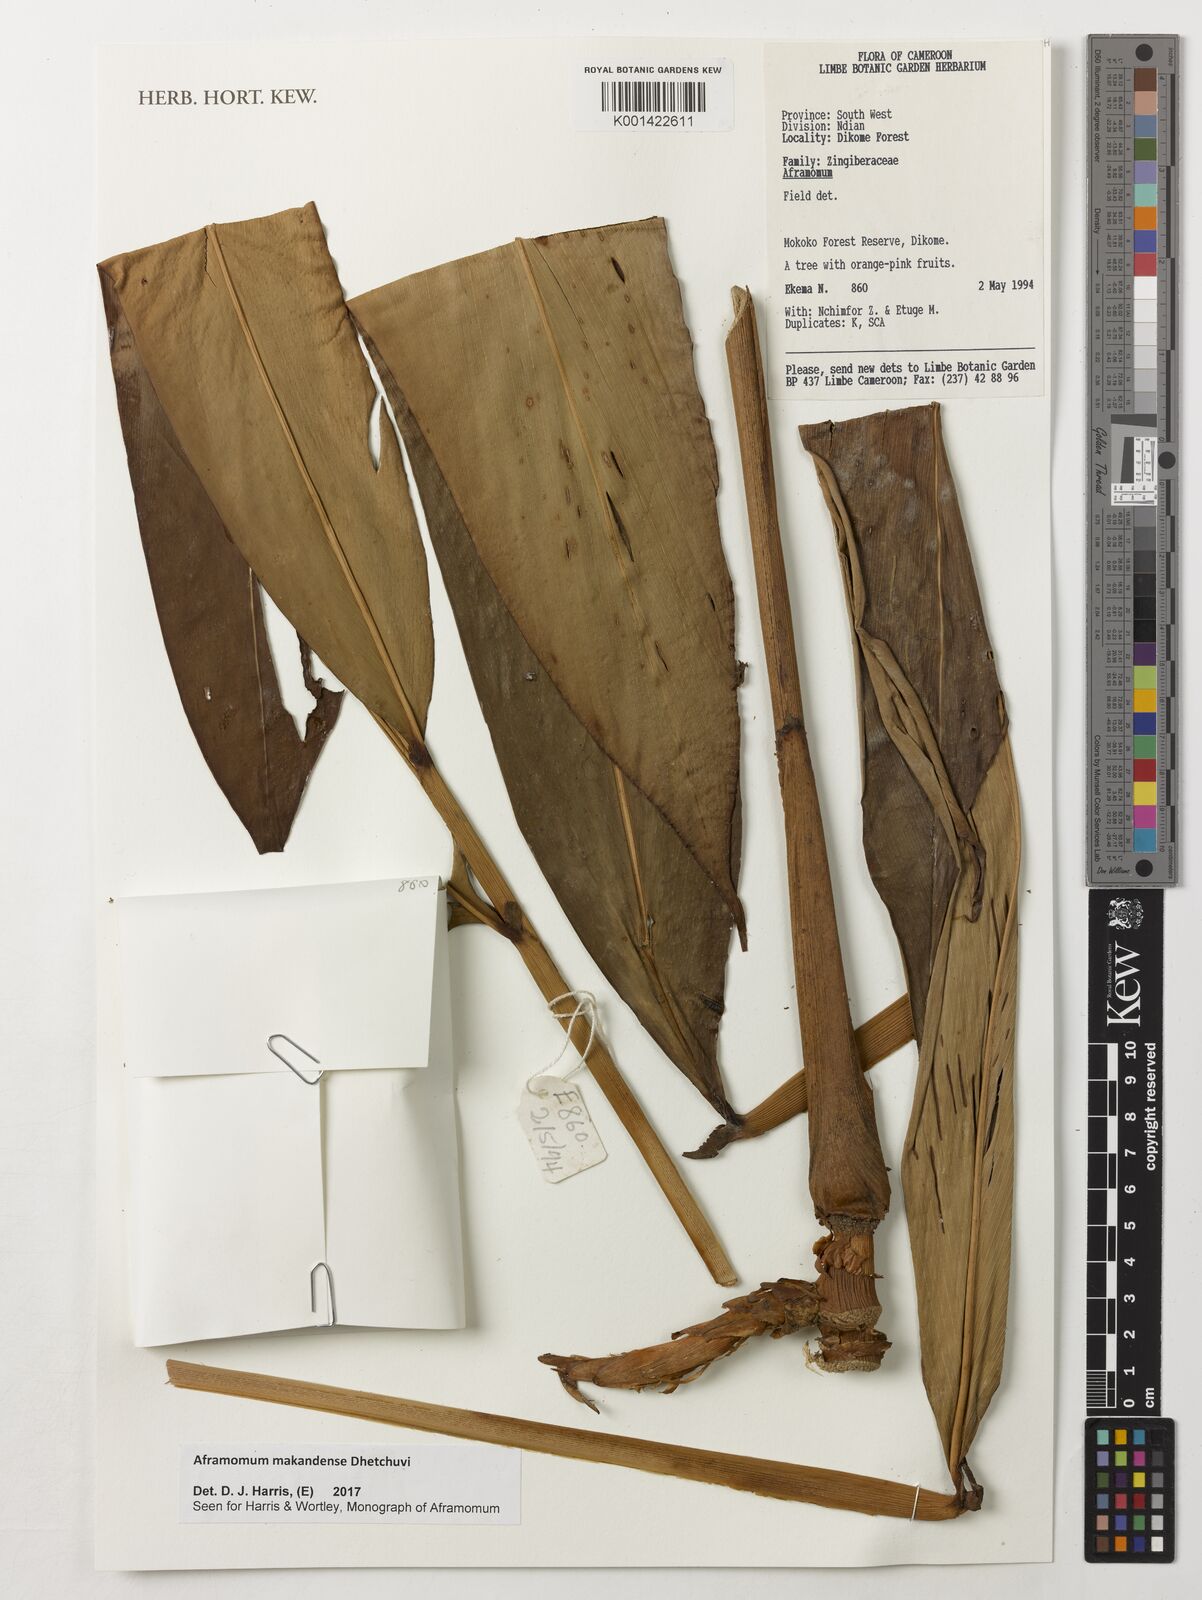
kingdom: Plantae
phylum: Tracheophyta
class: Liliopsida
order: Zingiberales
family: Zingiberaceae
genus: Aframomum
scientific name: Aframomum makandensis
